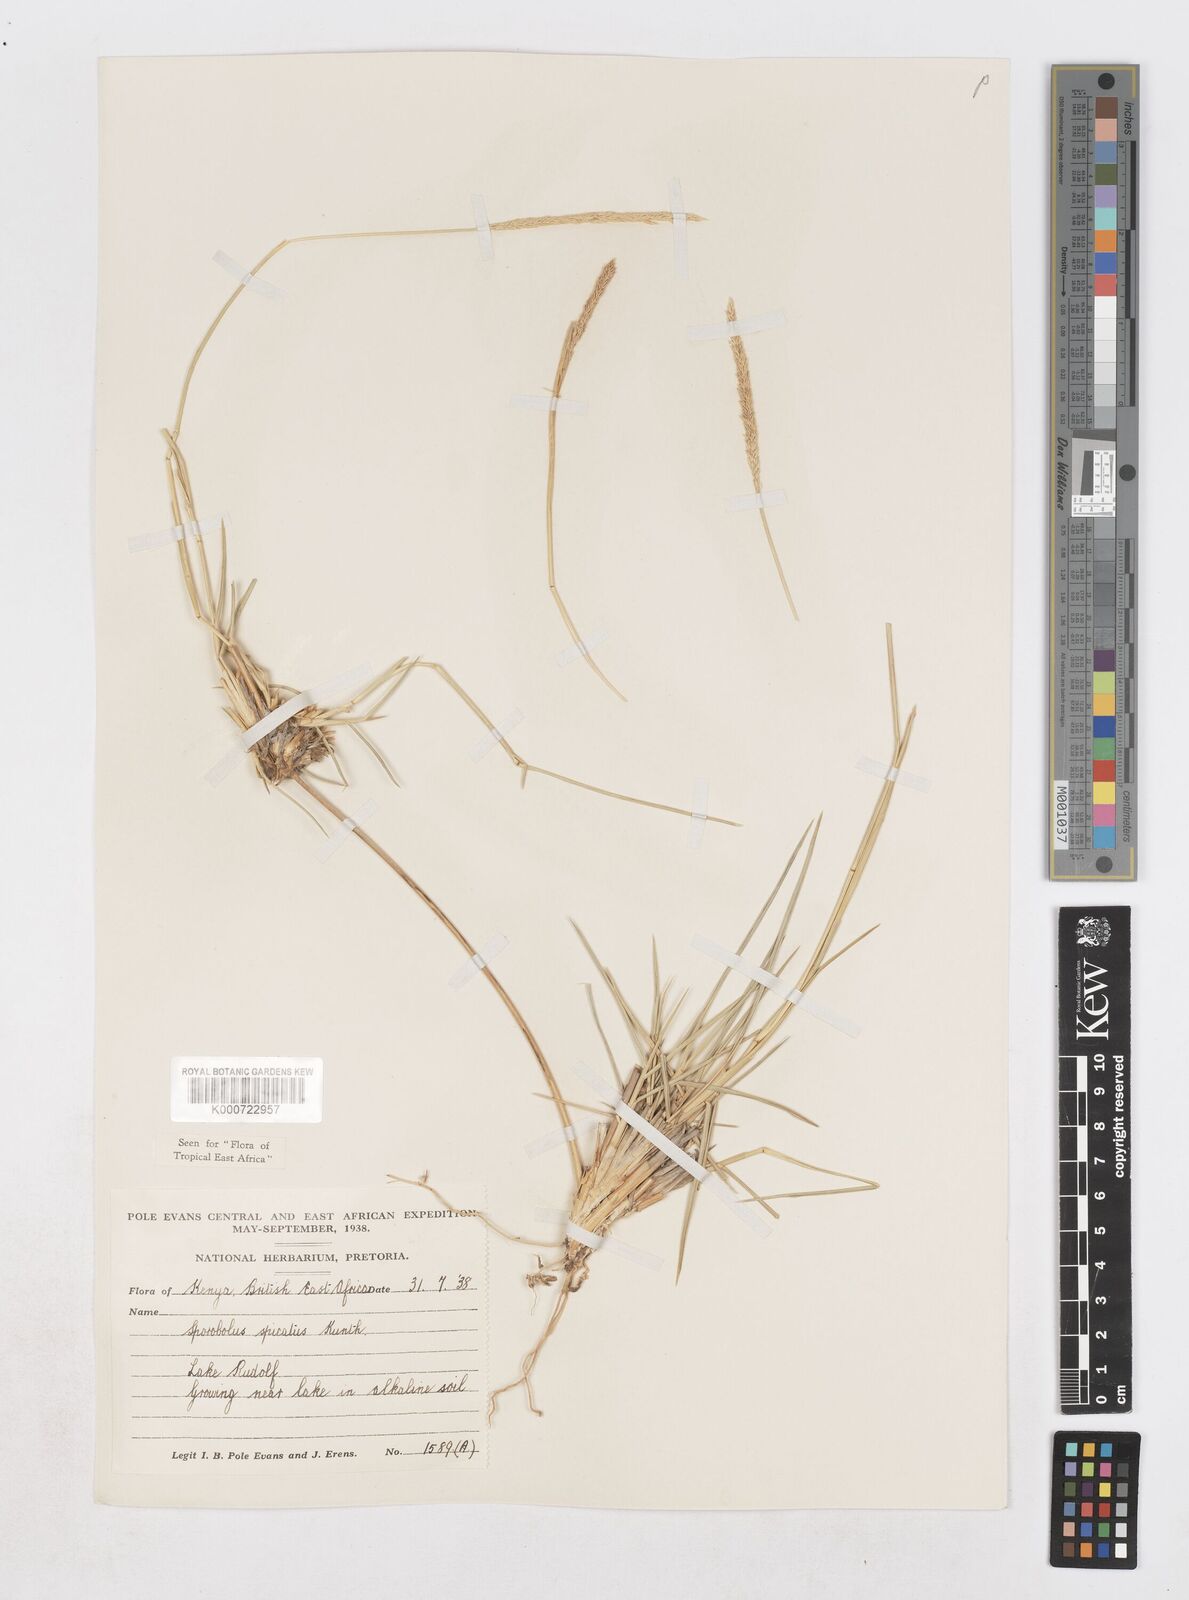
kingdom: Plantae
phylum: Tracheophyta
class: Liliopsida
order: Poales
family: Poaceae
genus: Sporobolus
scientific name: Sporobolus spicatus
